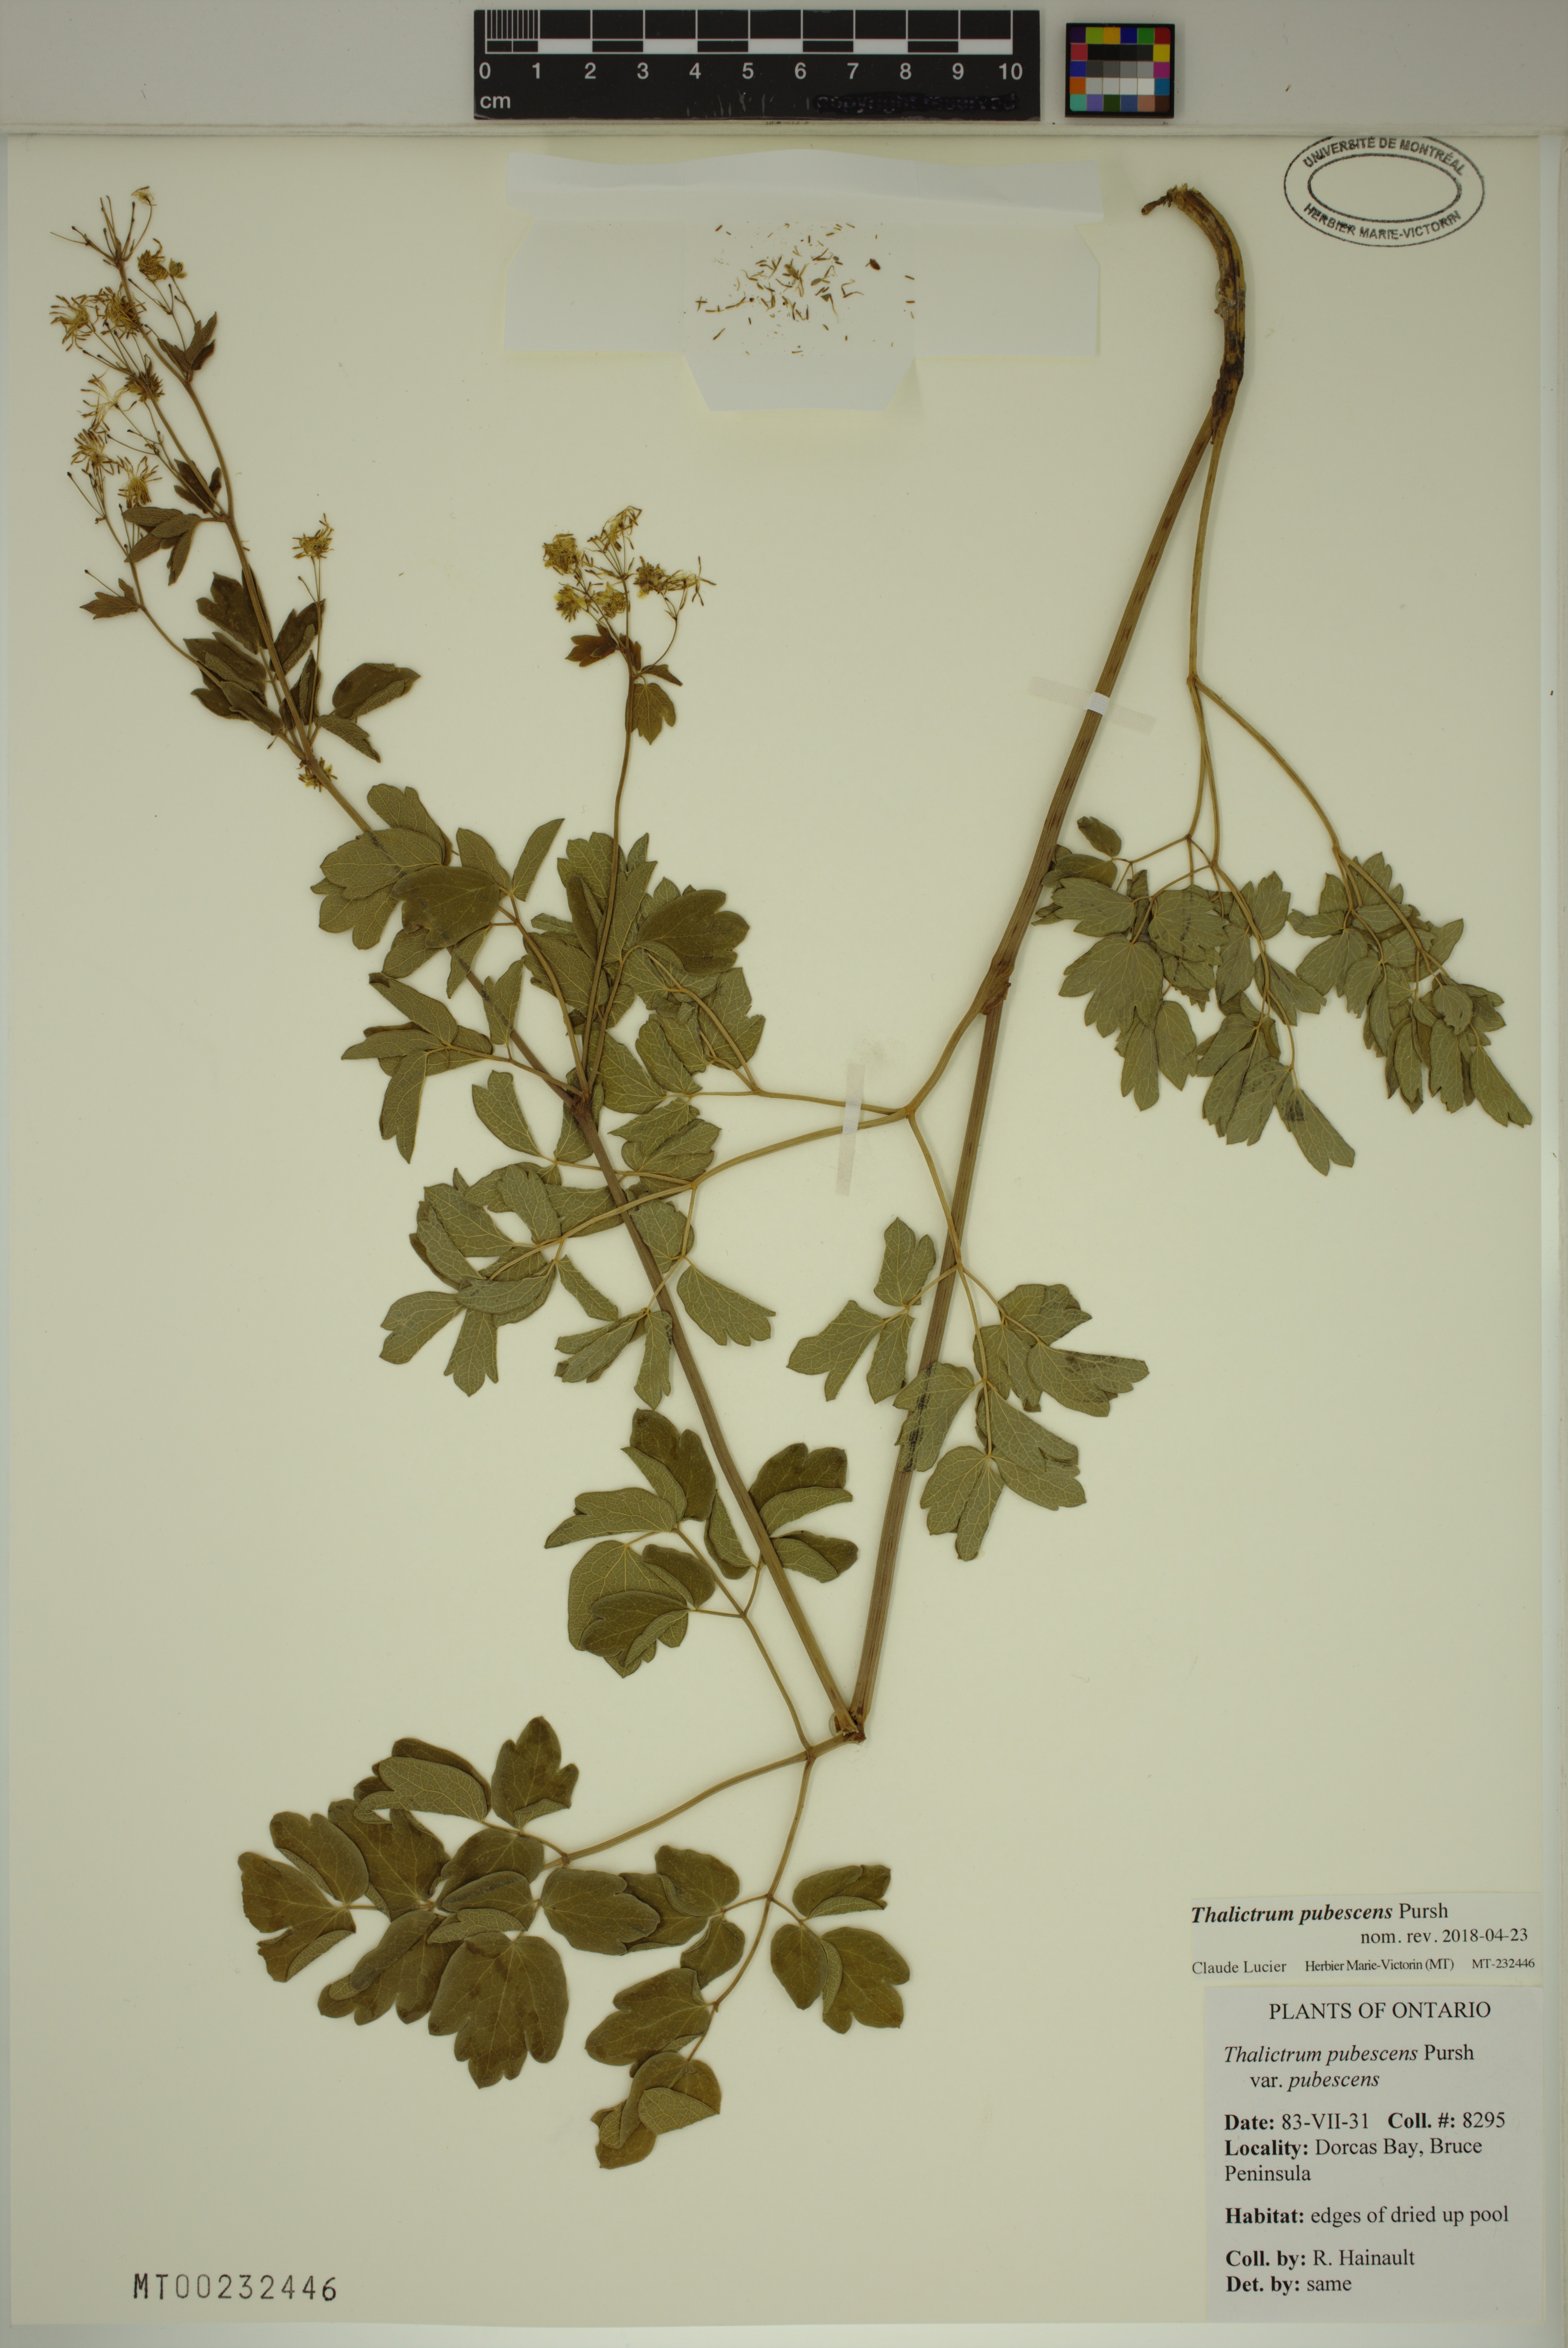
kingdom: Plantae
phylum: Tracheophyta
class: Magnoliopsida
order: Ranunculales
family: Ranunculaceae
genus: Thalictrum
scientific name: Thalictrum pubescens
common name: King-of-the-meadow
